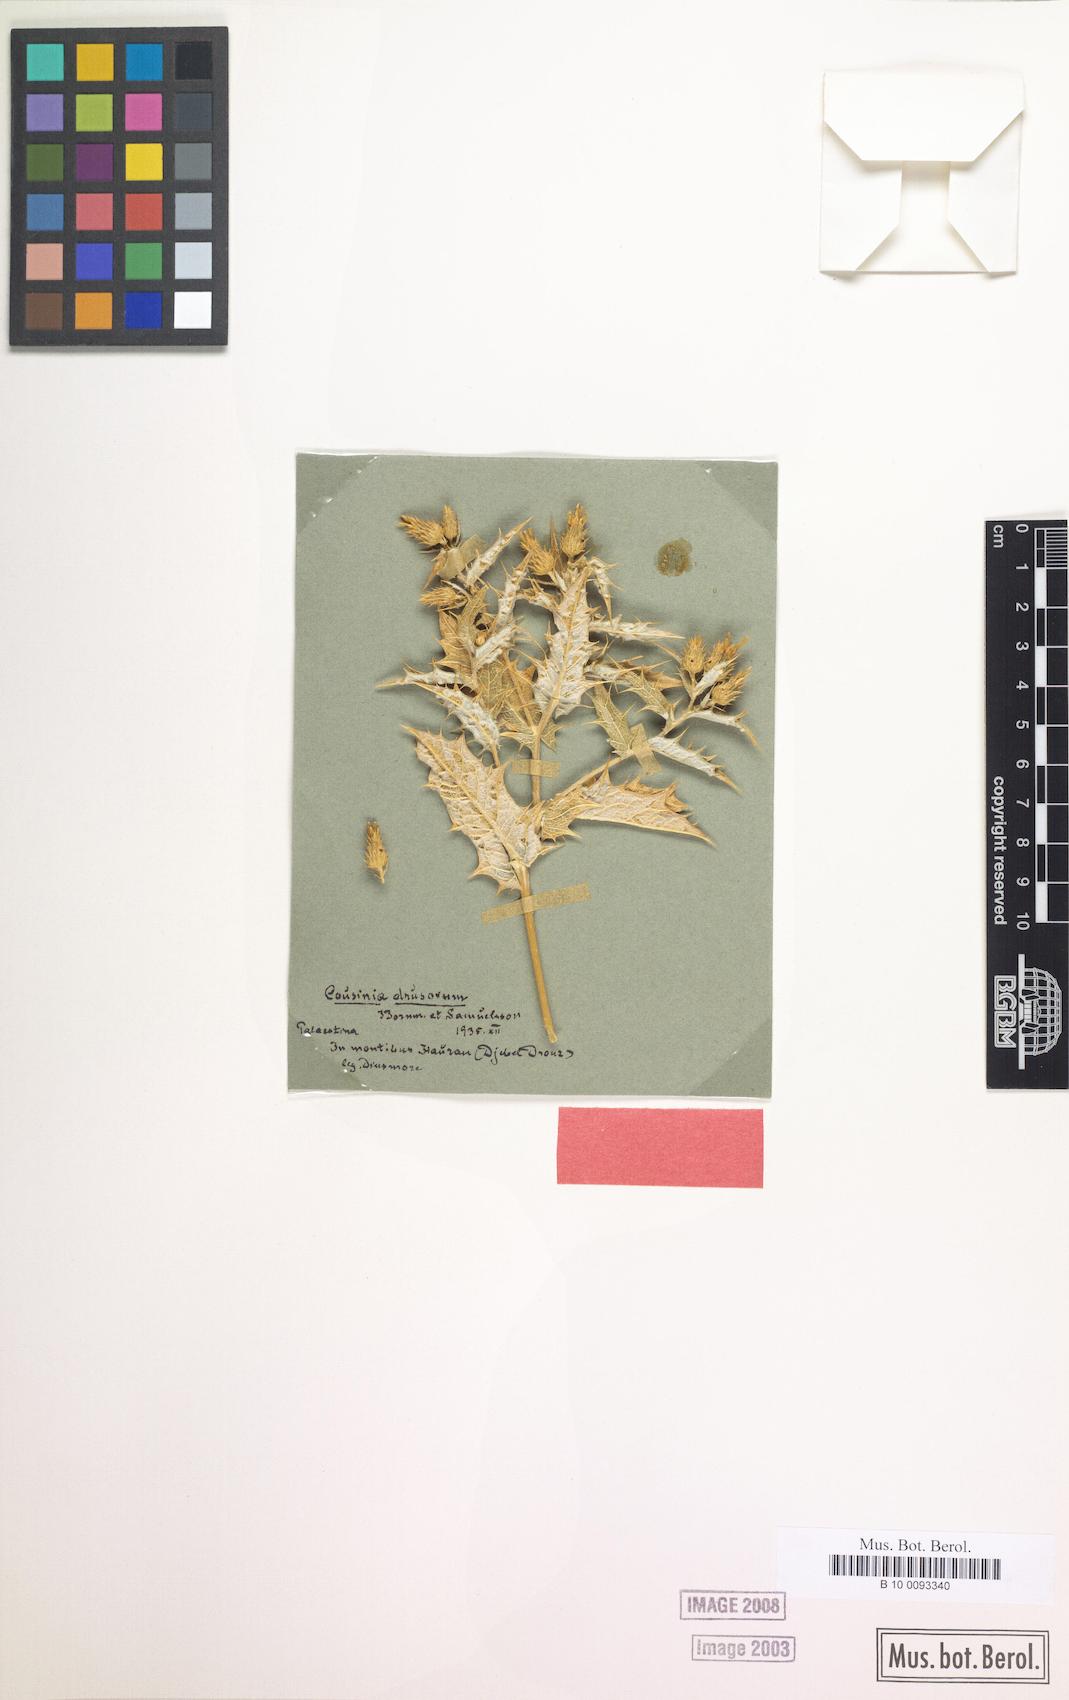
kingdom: Plantae
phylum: Tracheophyta
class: Magnoliopsida
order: Asterales
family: Asteraceae
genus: Cousinia
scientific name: Cousinia ramosissima
